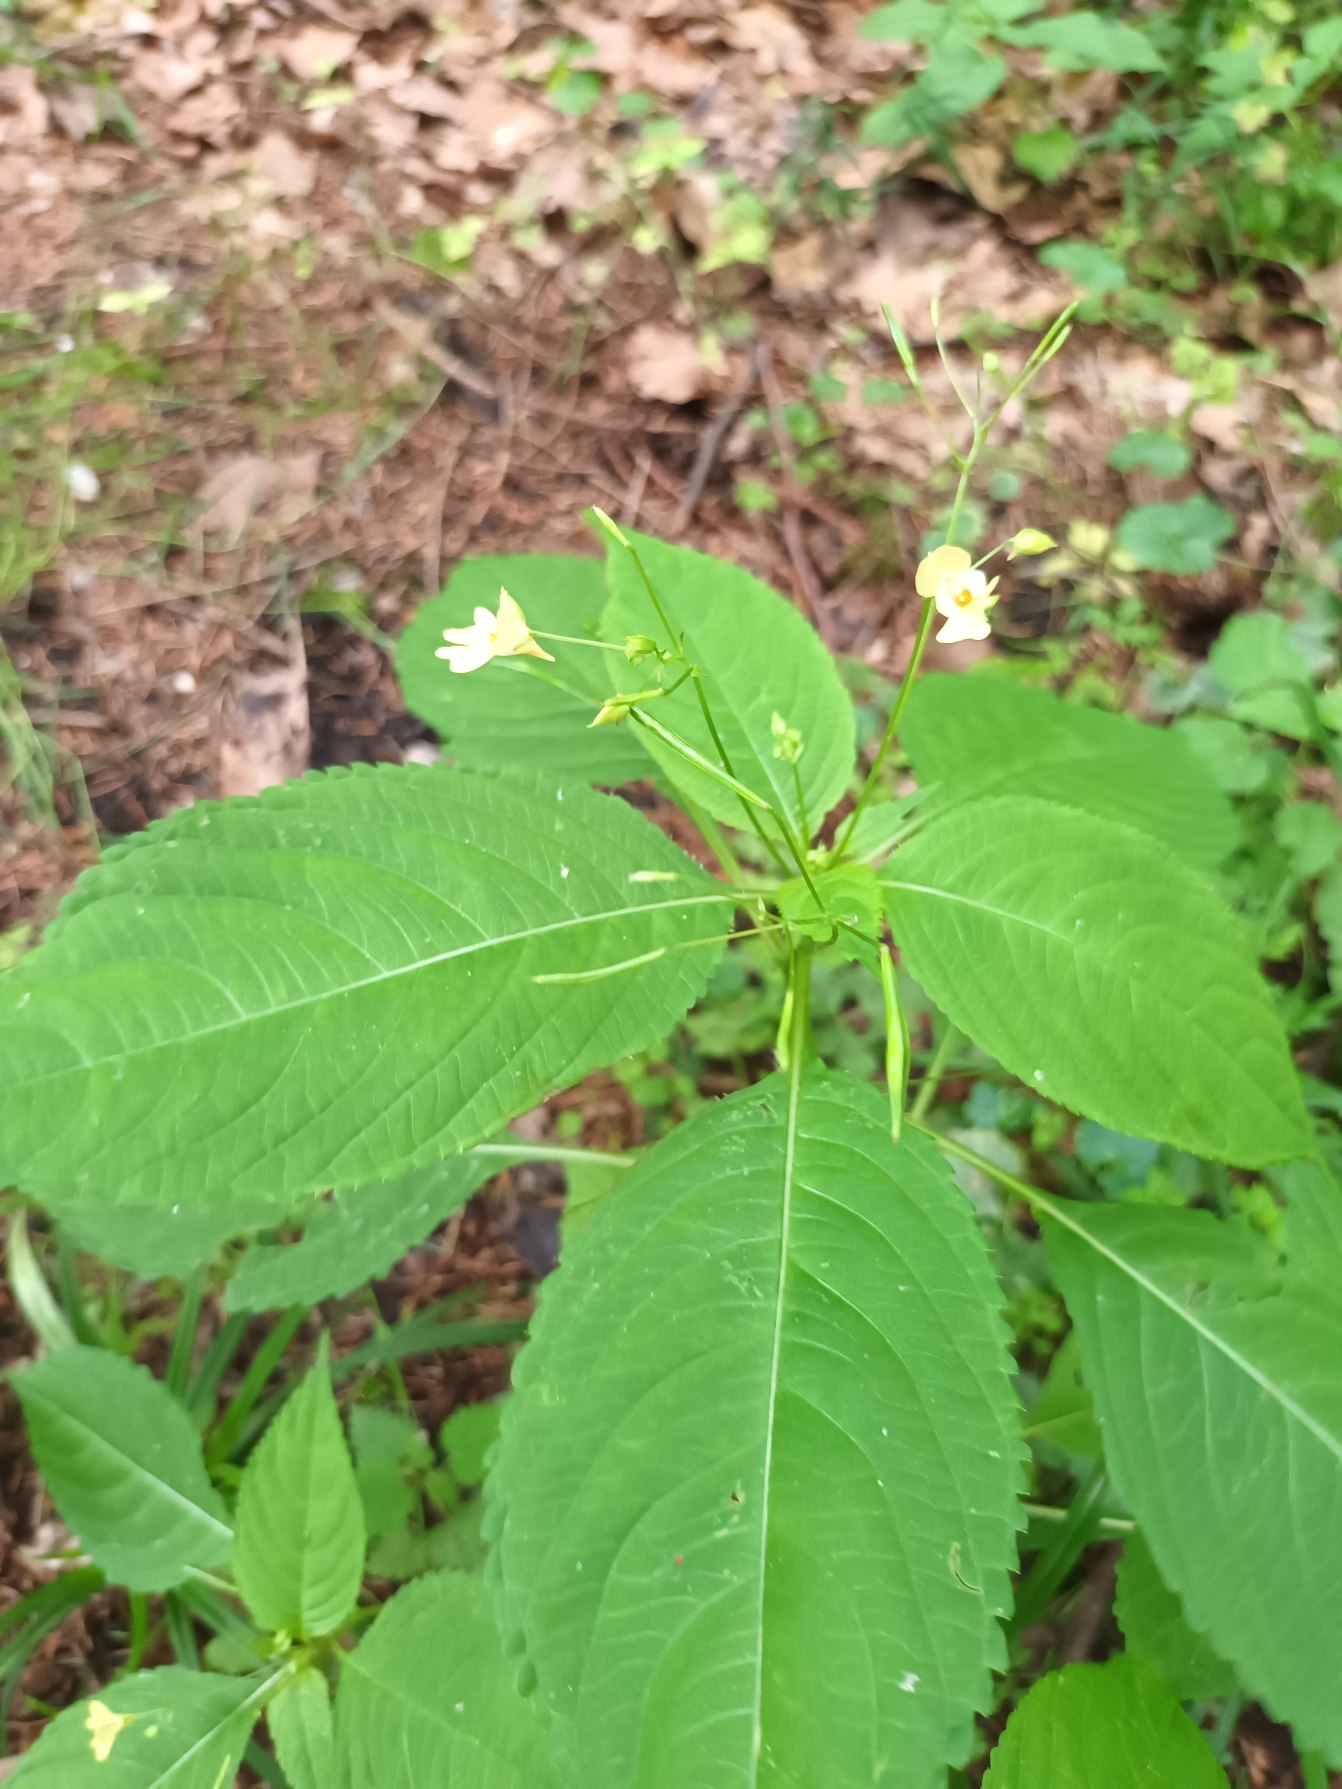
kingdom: Plantae
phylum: Tracheophyta
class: Magnoliopsida
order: Ericales
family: Balsaminaceae
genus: Impatiens
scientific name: Impatiens parviflora
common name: Småblomstret balsamin
